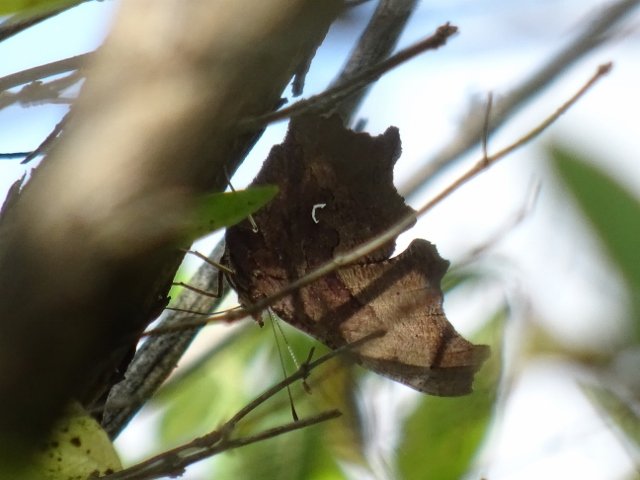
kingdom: Animalia
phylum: Arthropoda
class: Insecta
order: Lepidoptera
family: Nymphalidae
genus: Polygonia
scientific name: Polygonia comma
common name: Eastern Comma
